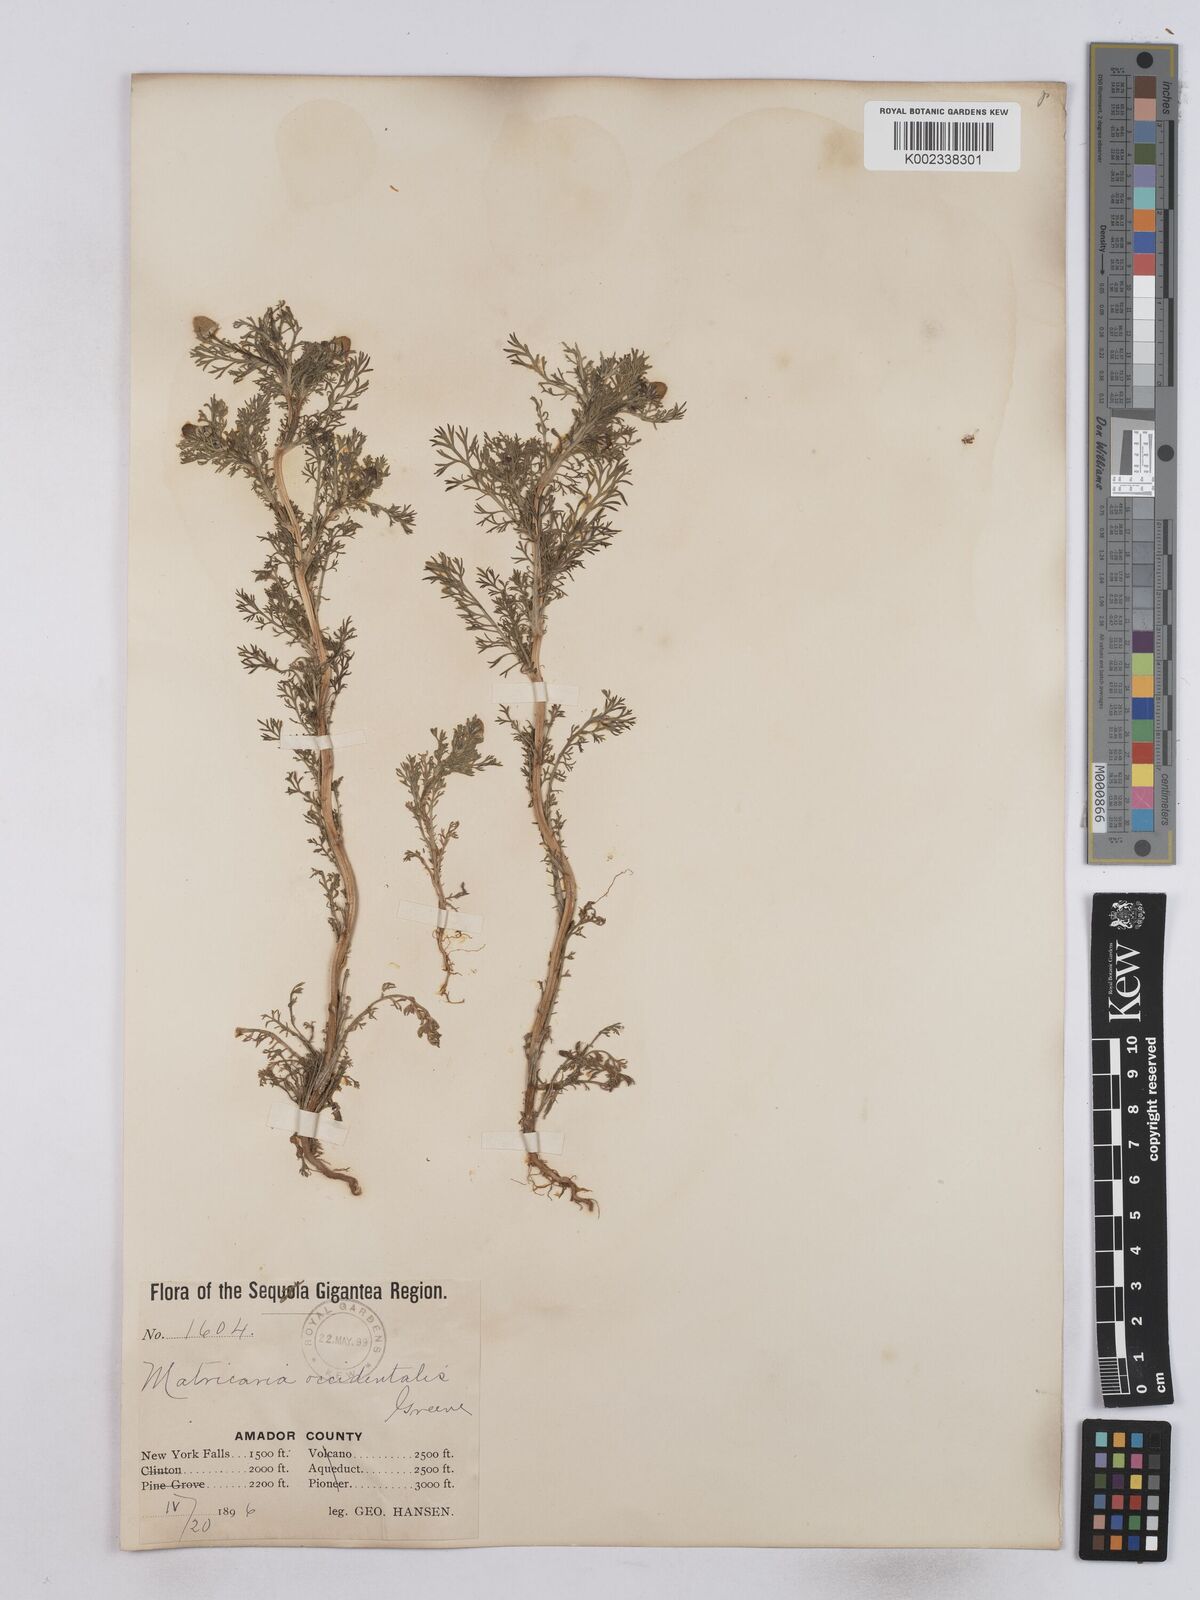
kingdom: Plantae
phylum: Tracheophyta
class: Magnoliopsida
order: Asterales
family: Asteraceae
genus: Matricaria
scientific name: Matricaria occidentalis
